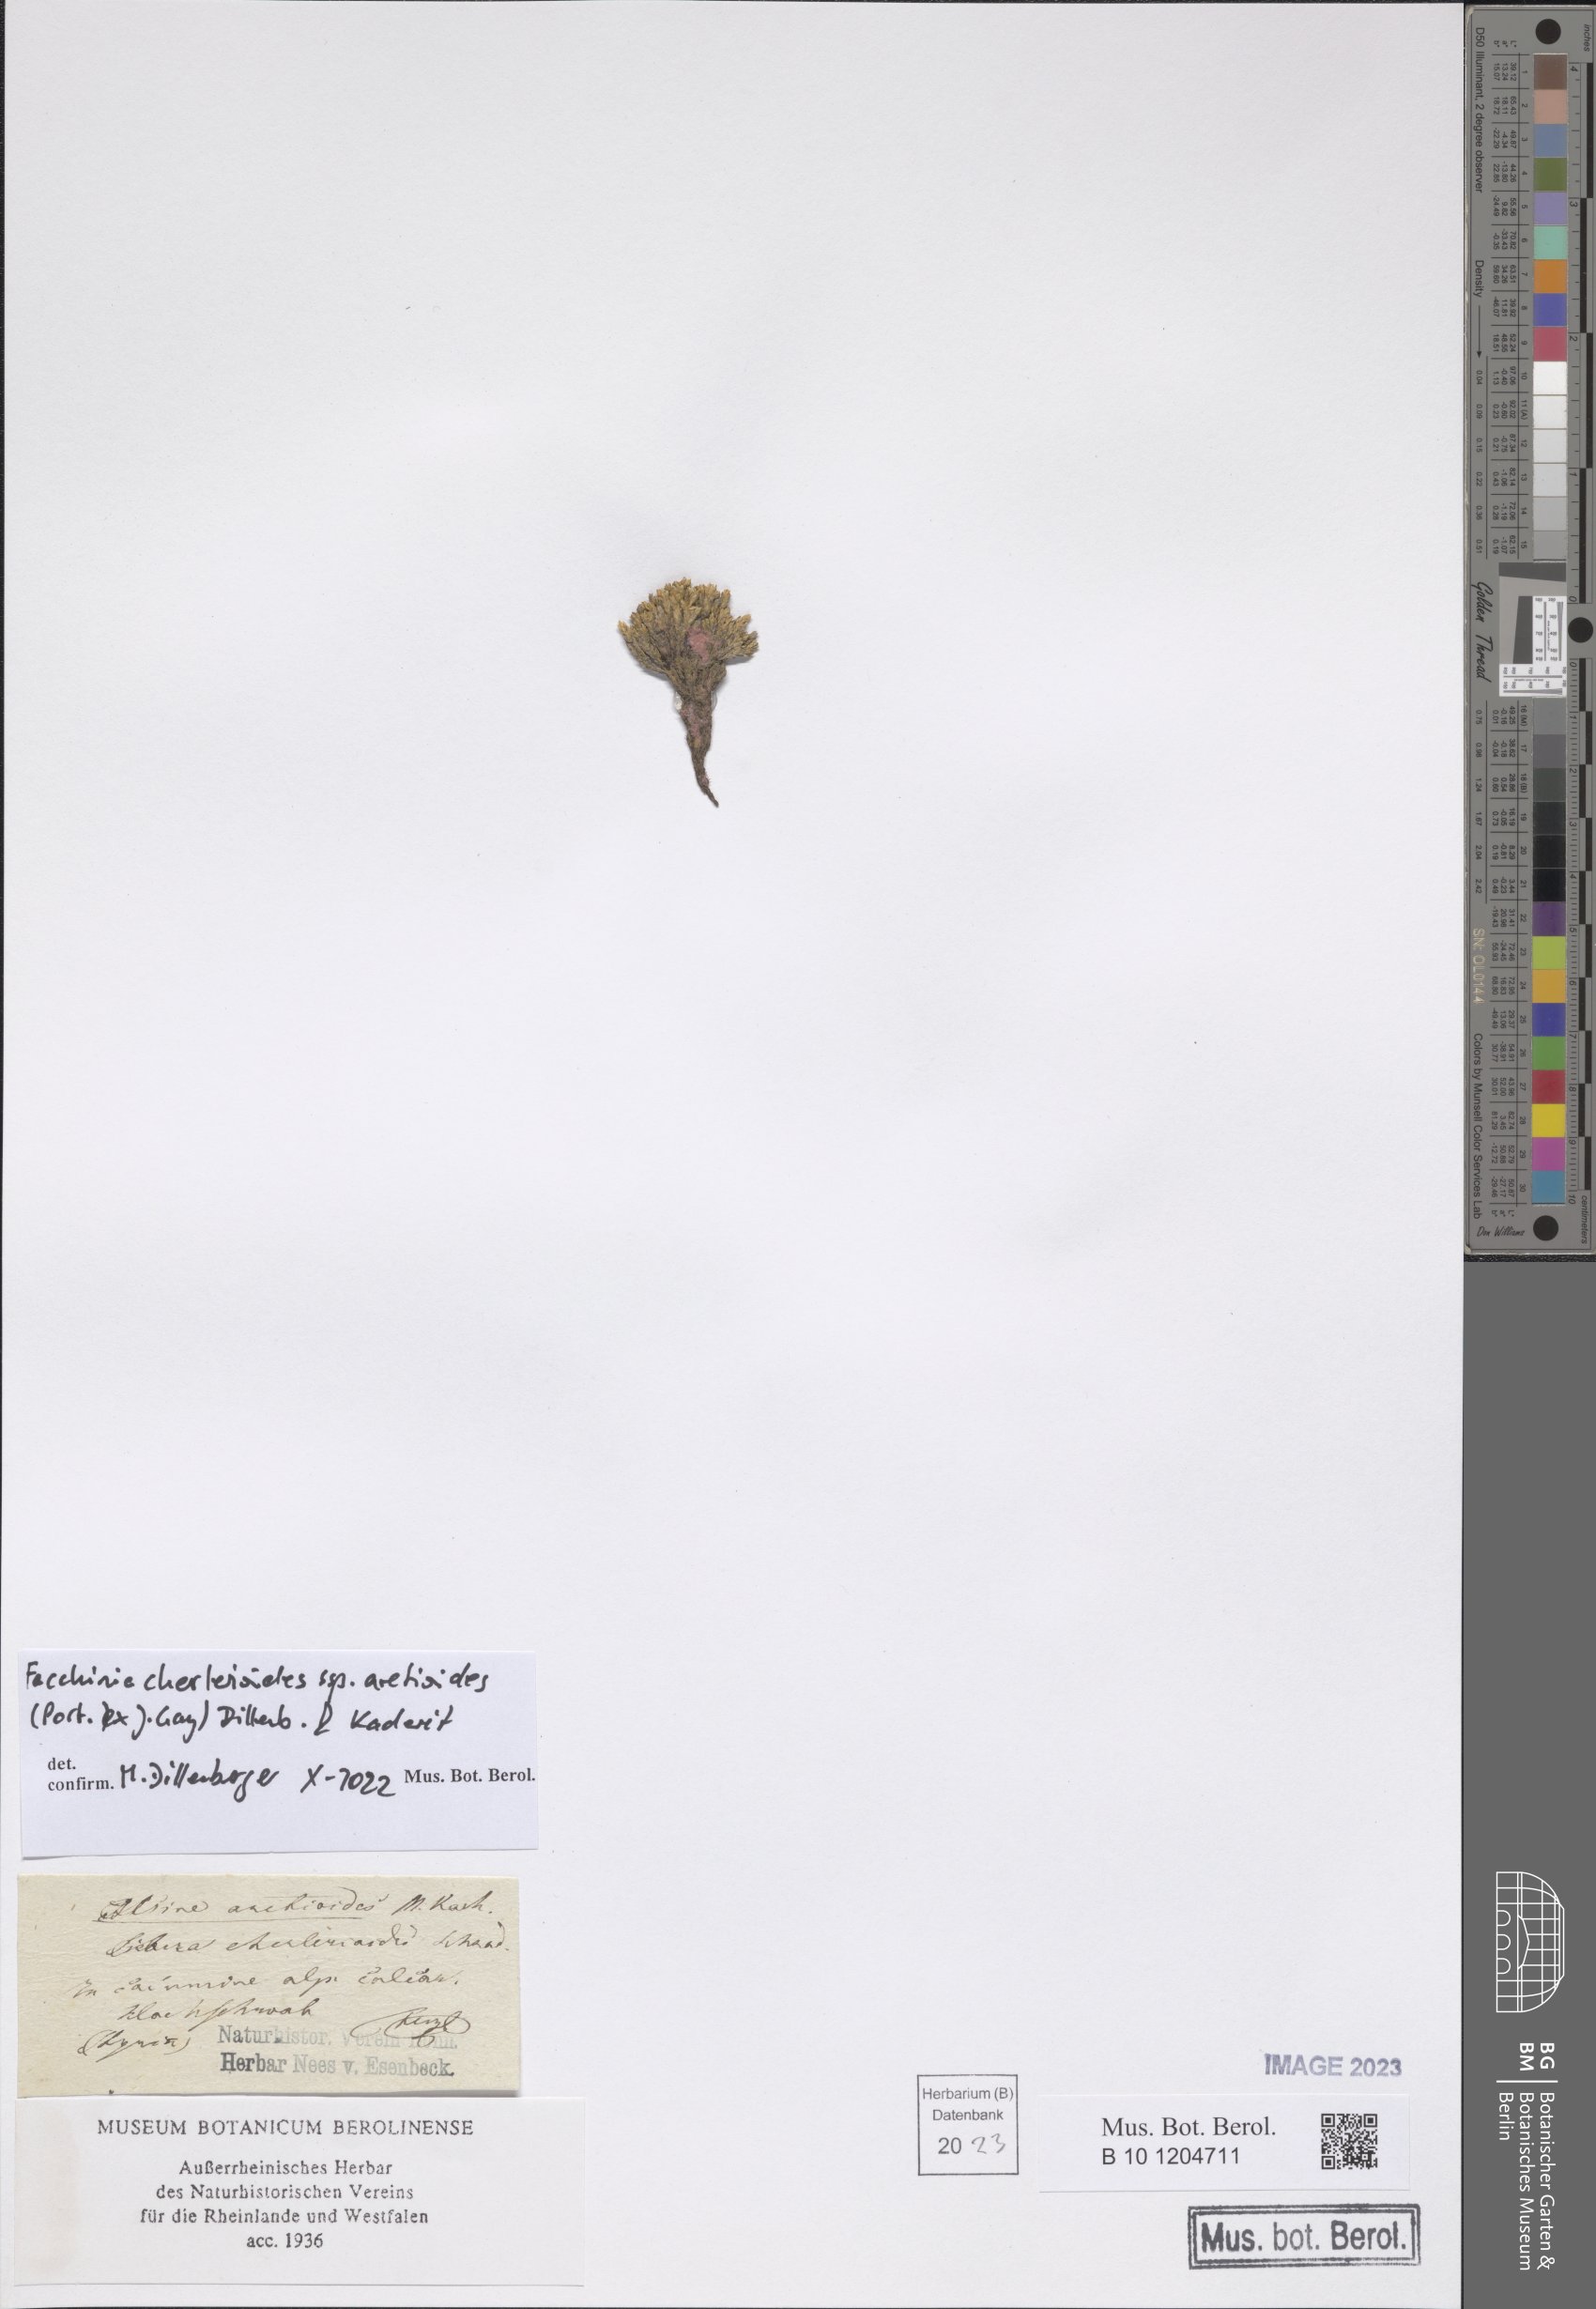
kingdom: Plantae
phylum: Tracheophyta
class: Magnoliopsida
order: Caryophyllales
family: Caryophyllaceae
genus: Facchinia
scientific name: Facchinia cherlerioides
